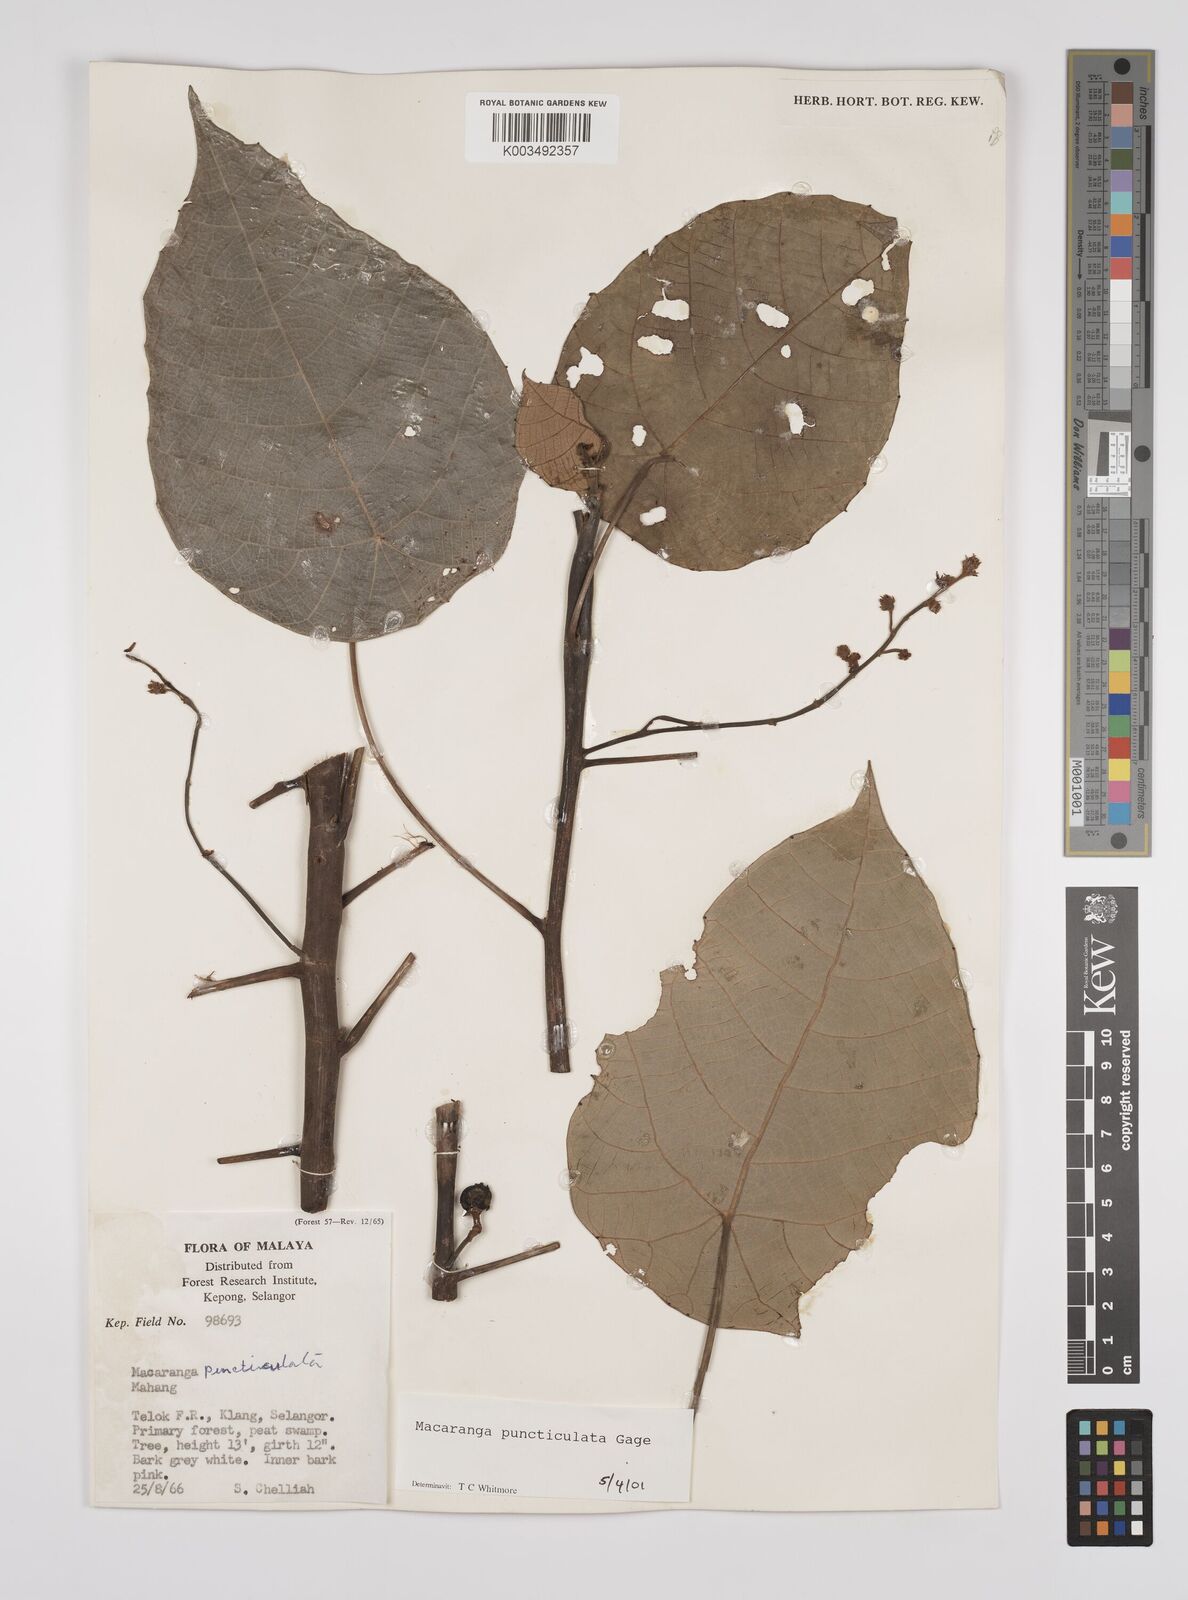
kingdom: Plantae
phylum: Tracheophyta
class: Magnoliopsida
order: Malpighiales
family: Euphorbiaceae
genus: Macaranga
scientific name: Macaranga puncticulata
